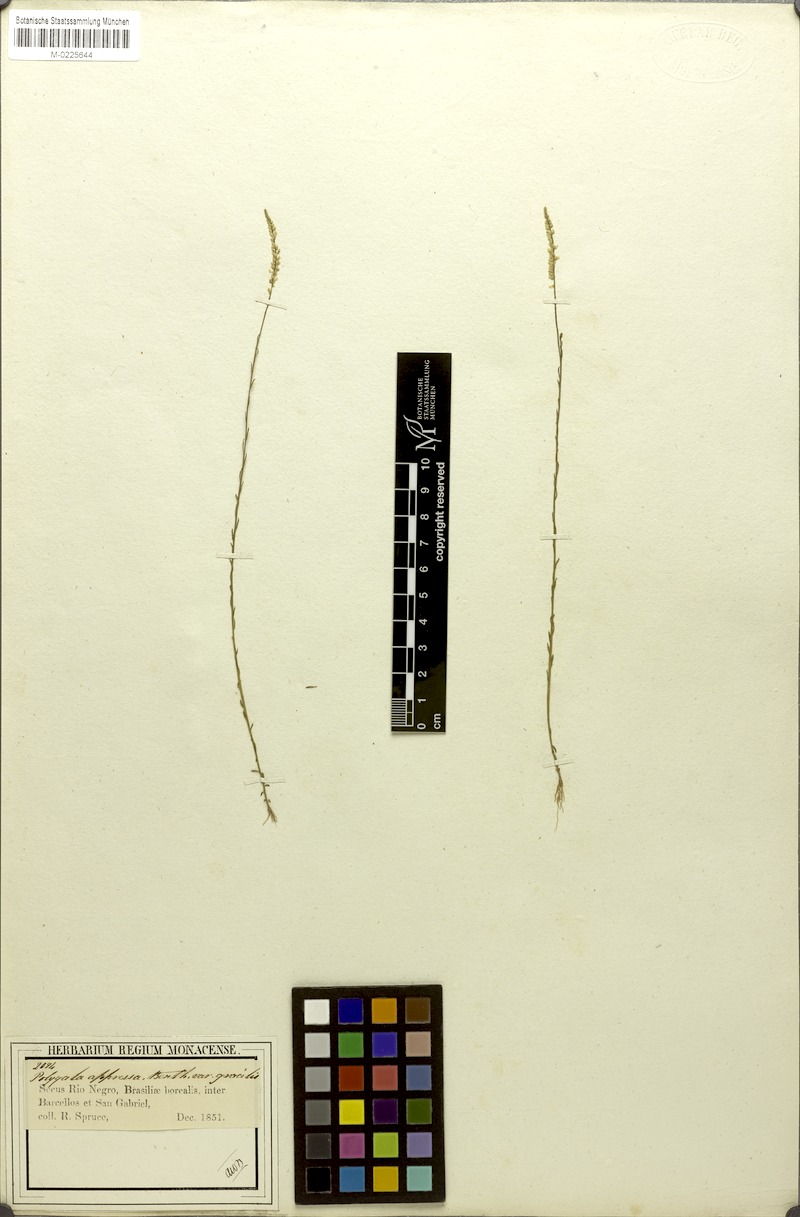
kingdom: Plantae
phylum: Tracheophyta
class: Magnoliopsida
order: Fabales
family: Polygalaceae
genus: Polygala
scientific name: Polygala appressa
